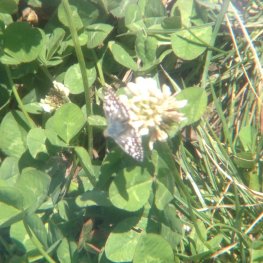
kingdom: Animalia
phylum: Arthropoda
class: Insecta
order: Lepidoptera
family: Hesperiidae
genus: Pyrgus
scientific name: Pyrgus communis
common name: Common Checkered-Skipper
